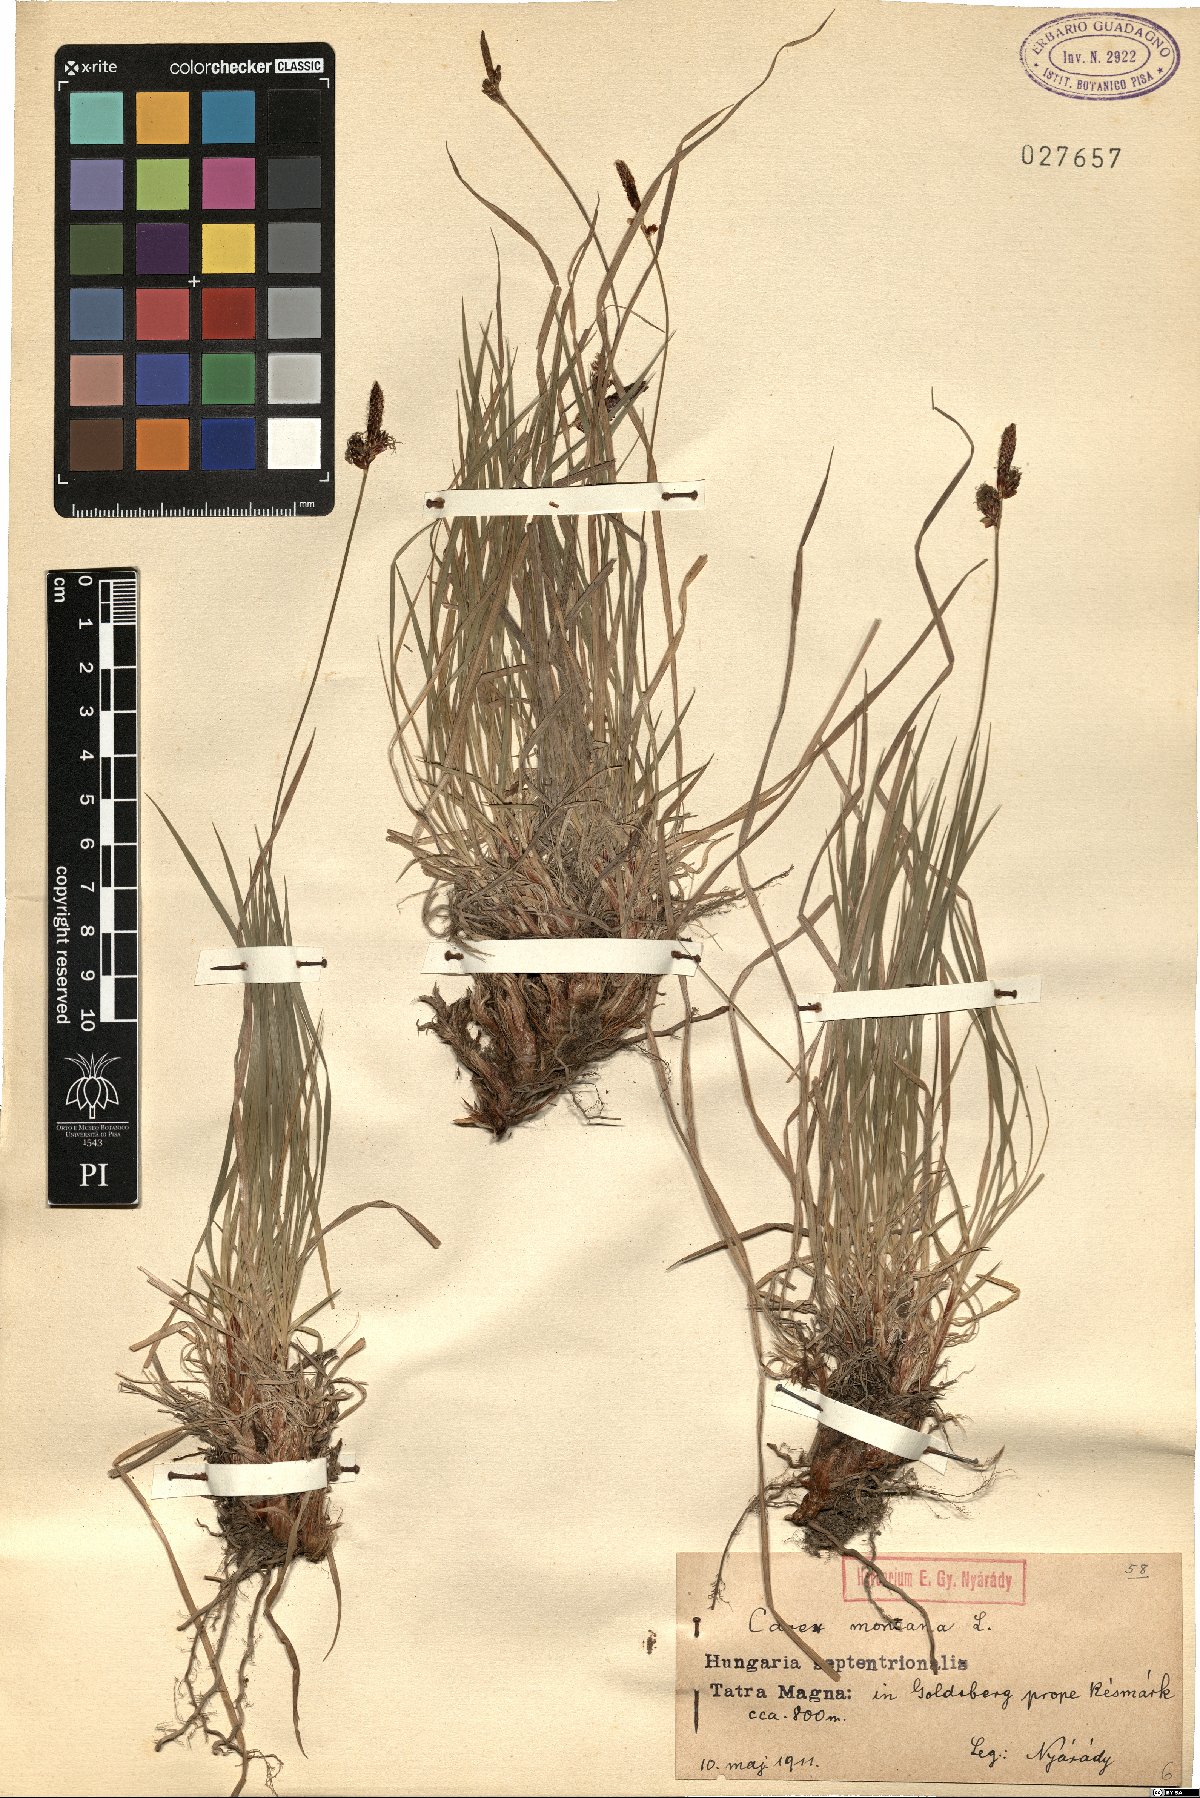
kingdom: Plantae
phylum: Tracheophyta
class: Liliopsida
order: Poales
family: Cyperaceae
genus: Carex
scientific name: Carex montana
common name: Soft-leaved sedge
